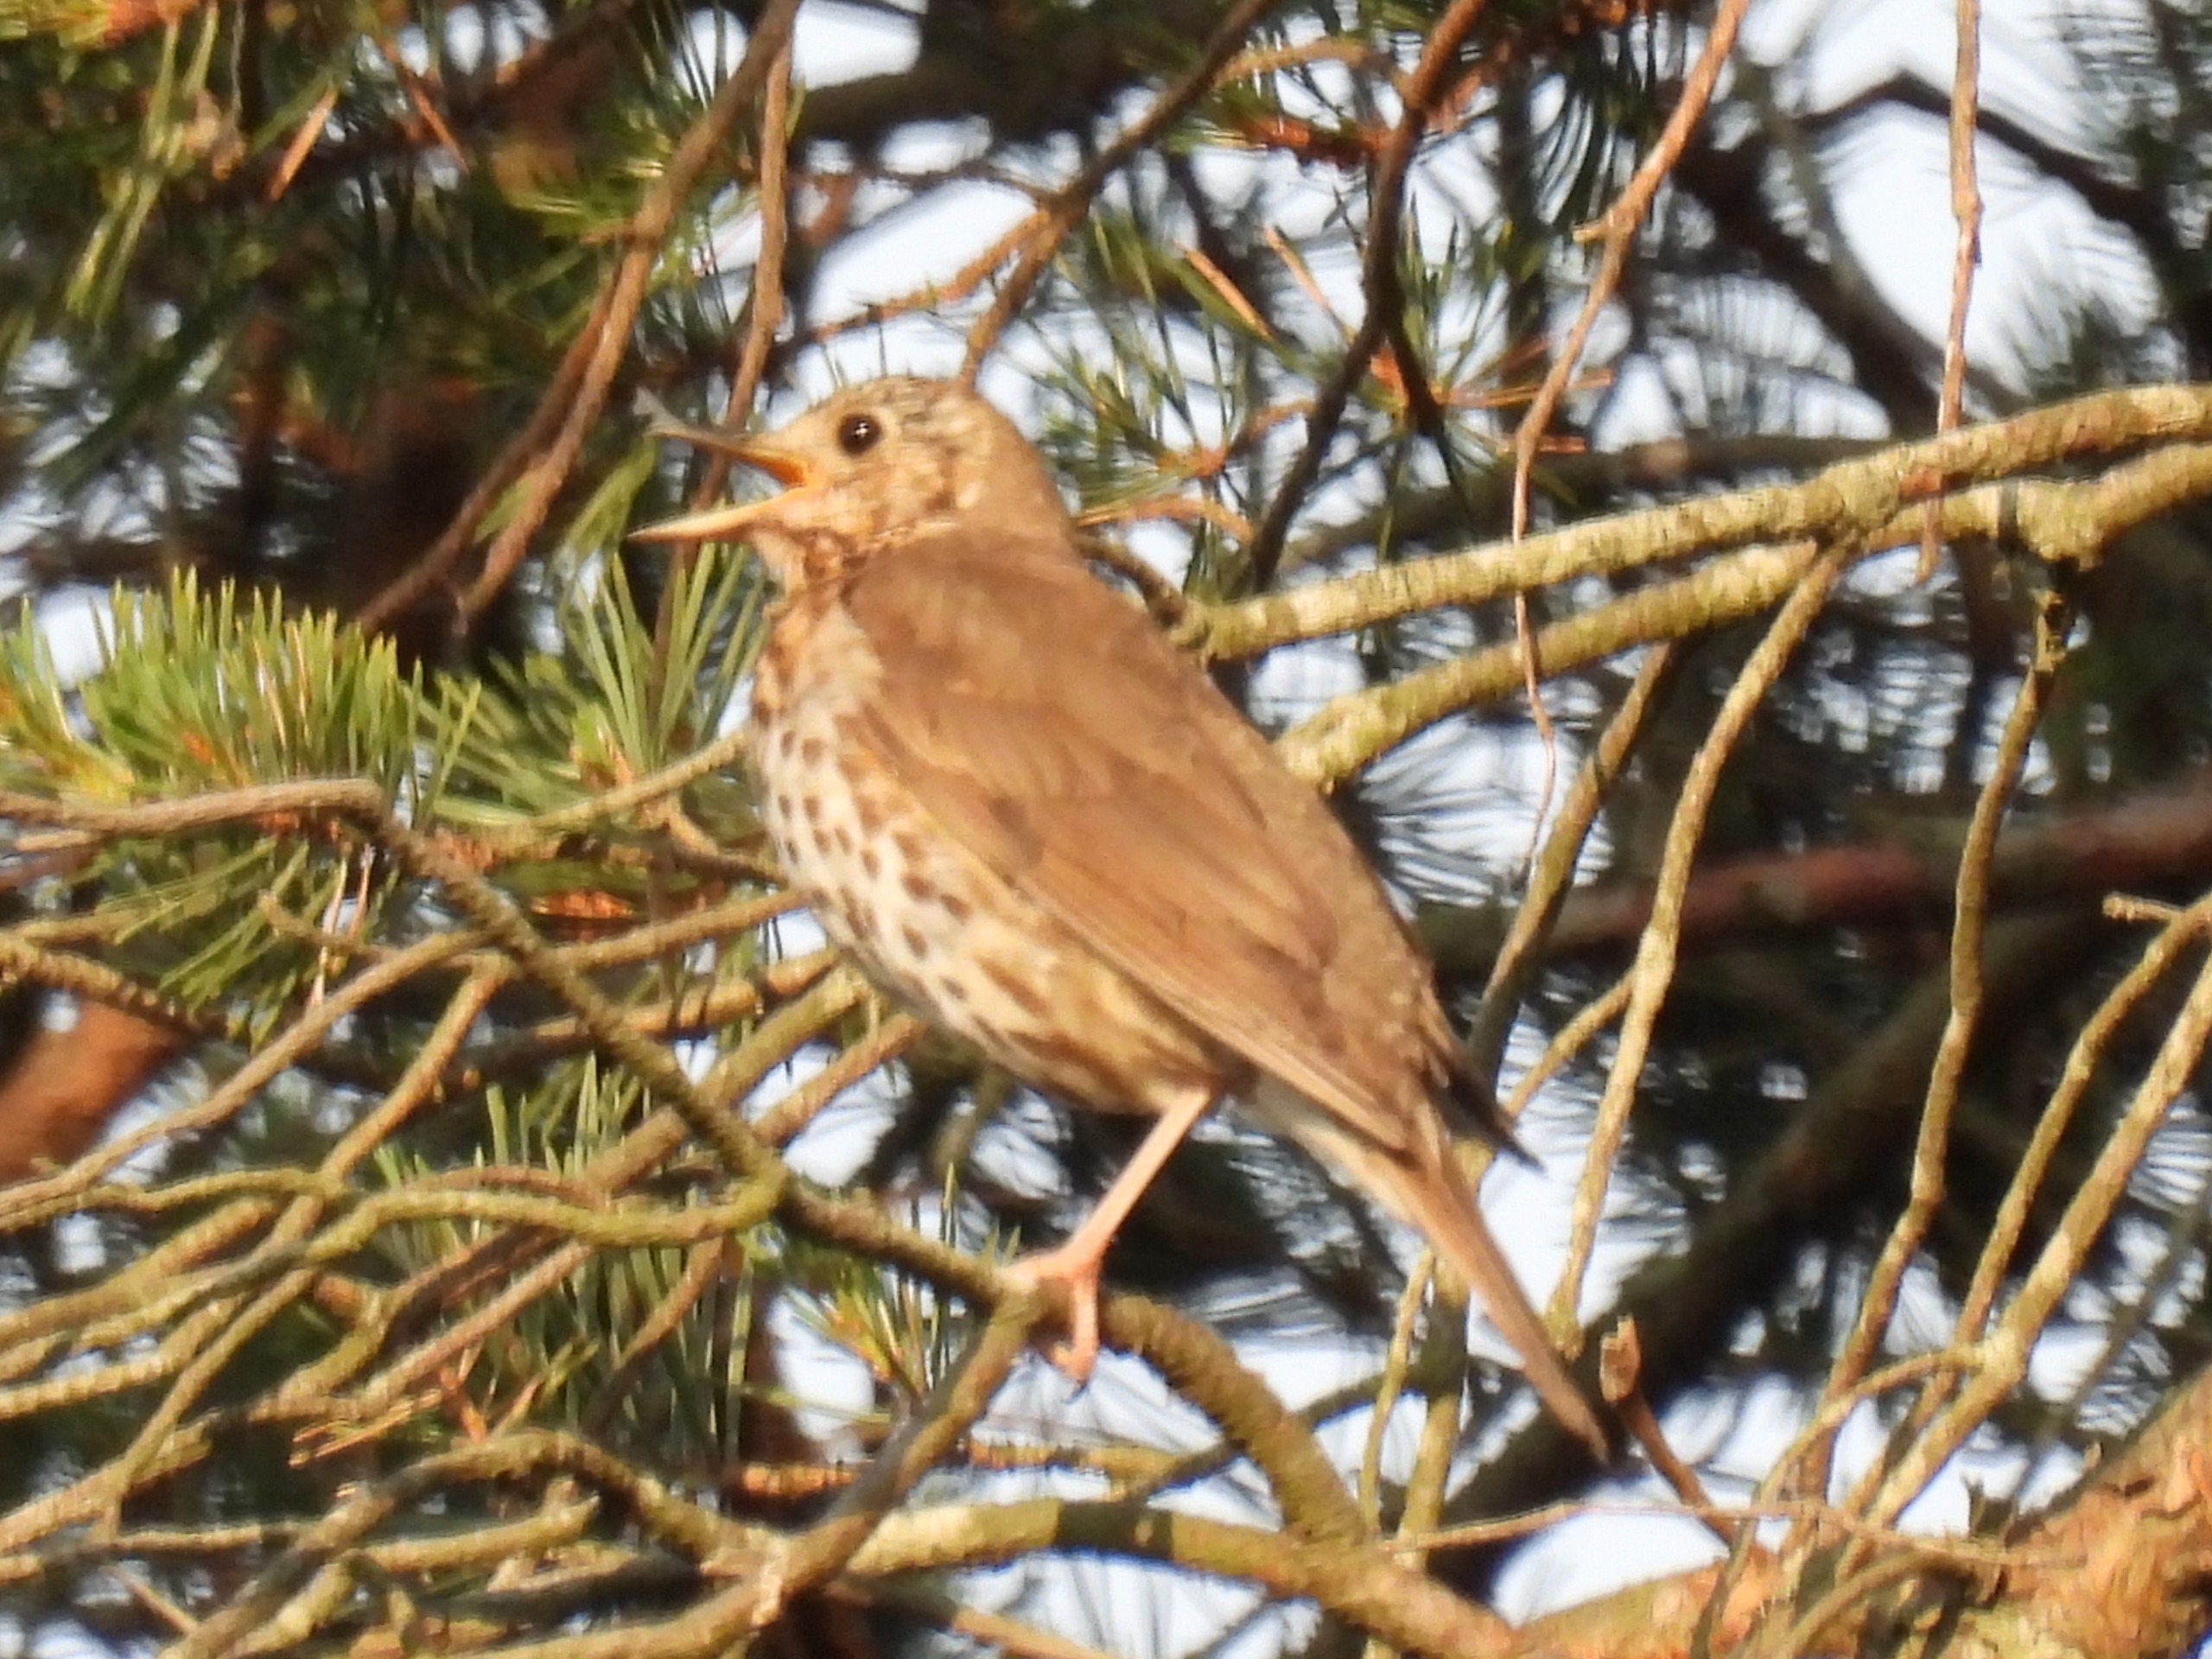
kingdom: Animalia
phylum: Chordata
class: Aves
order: Passeriformes
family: Turdidae
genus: Turdus
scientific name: Turdus philomelos
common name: Sangdrossel
